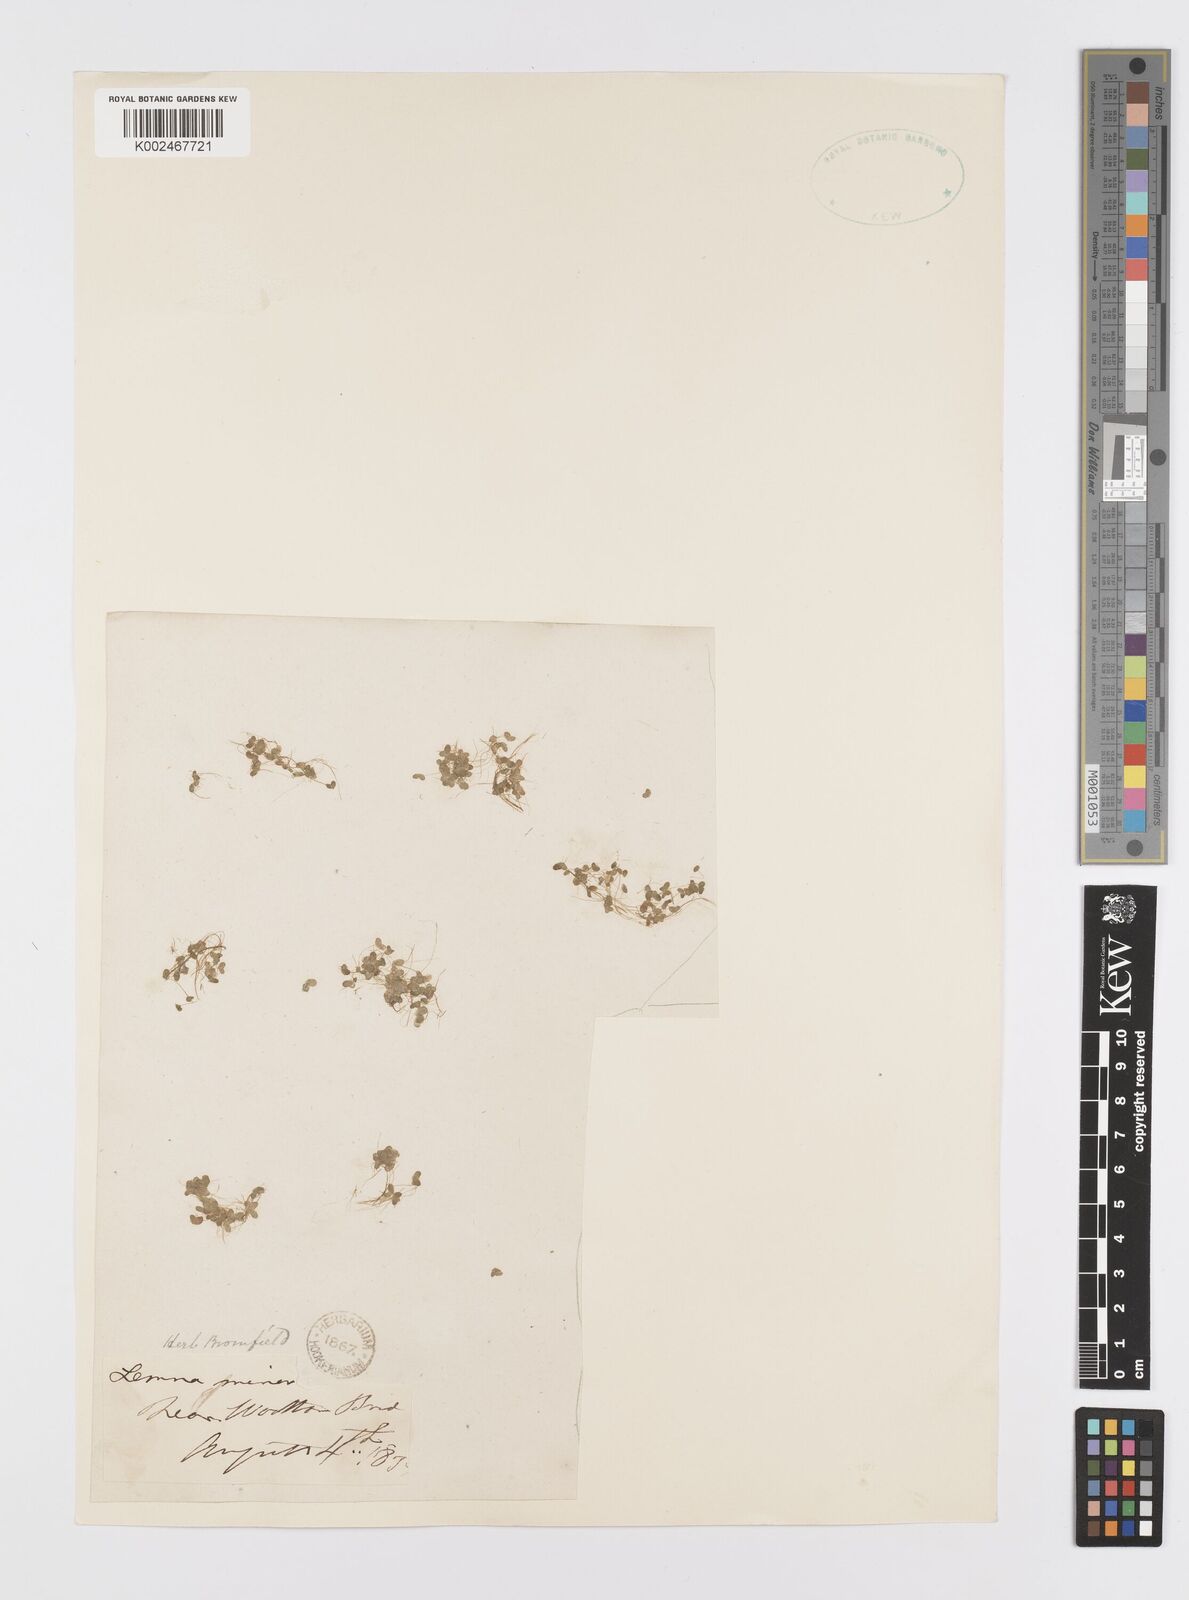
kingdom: Plantae
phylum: Tracheophyta
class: Liliopsida
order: Alismatales
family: Araceae
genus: Lemna
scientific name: Lemna minor
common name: Common duckweed
